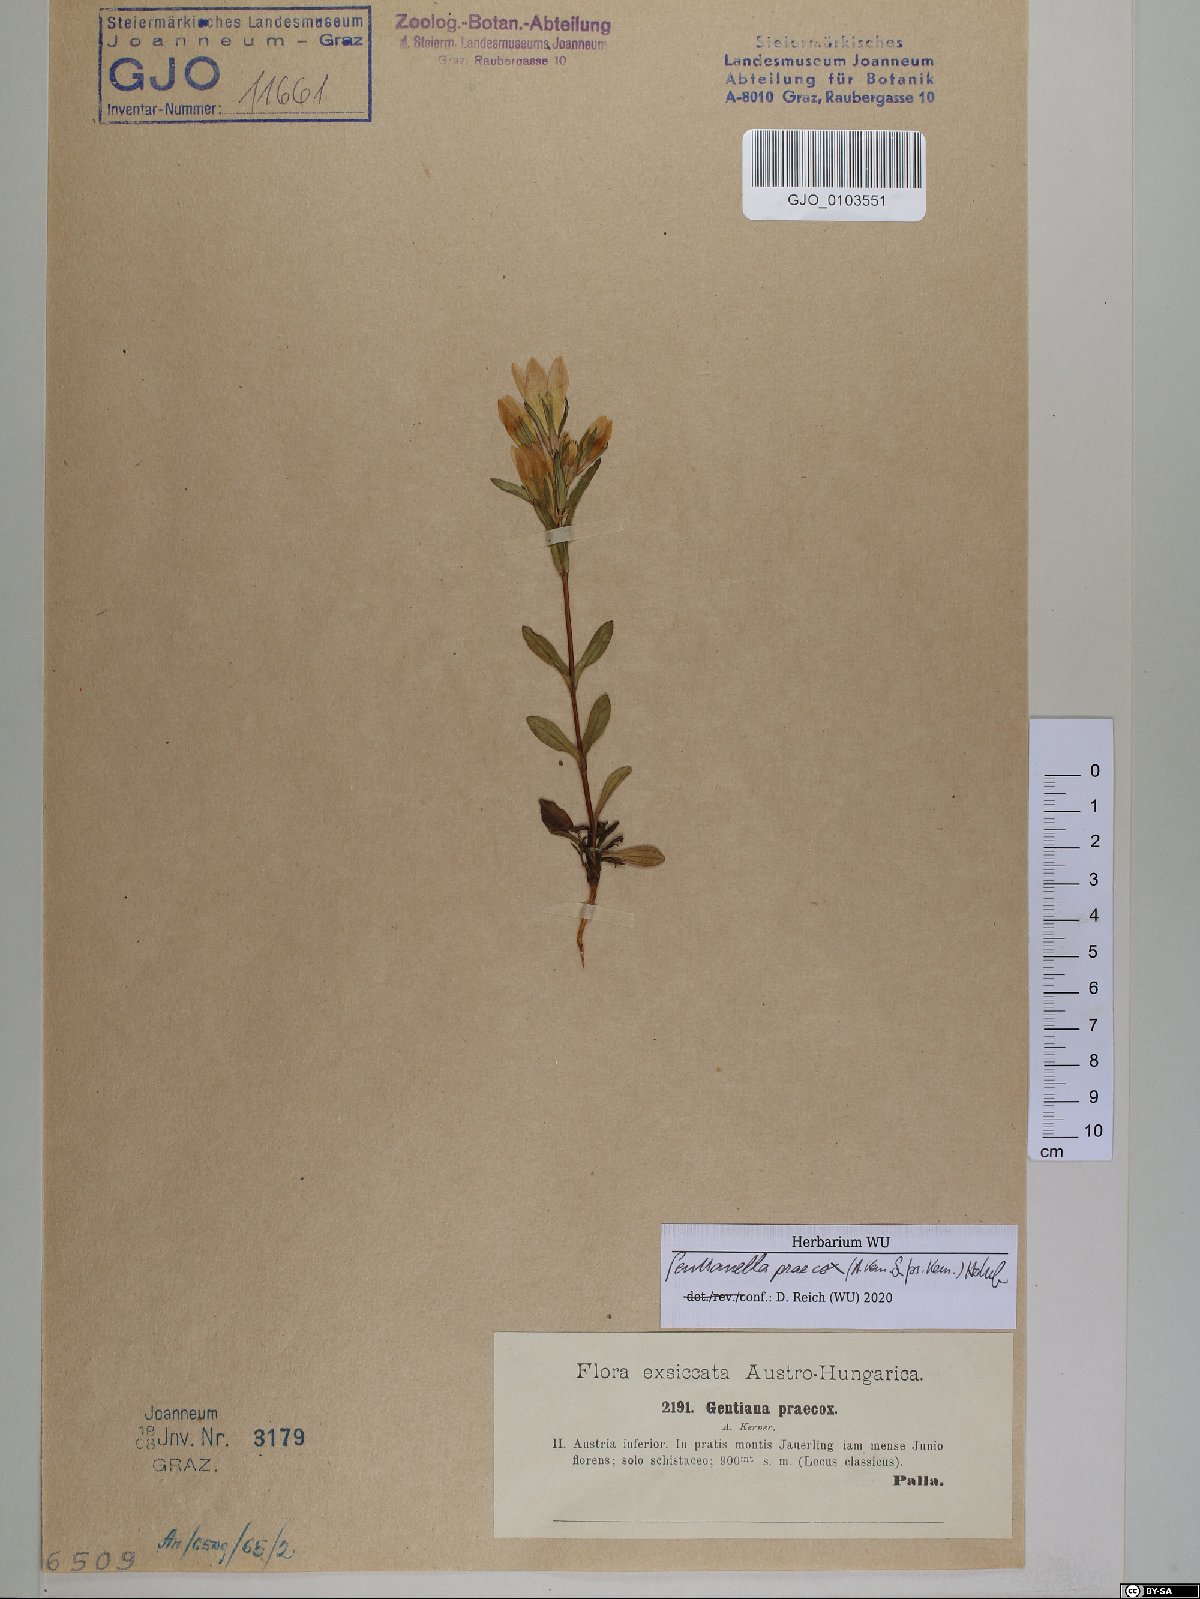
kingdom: Plantae
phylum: Tracheophyta
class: Magnoliopsida
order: Gentianales
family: Gentianaceae
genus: Gentianella
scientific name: Gentianella praecox
